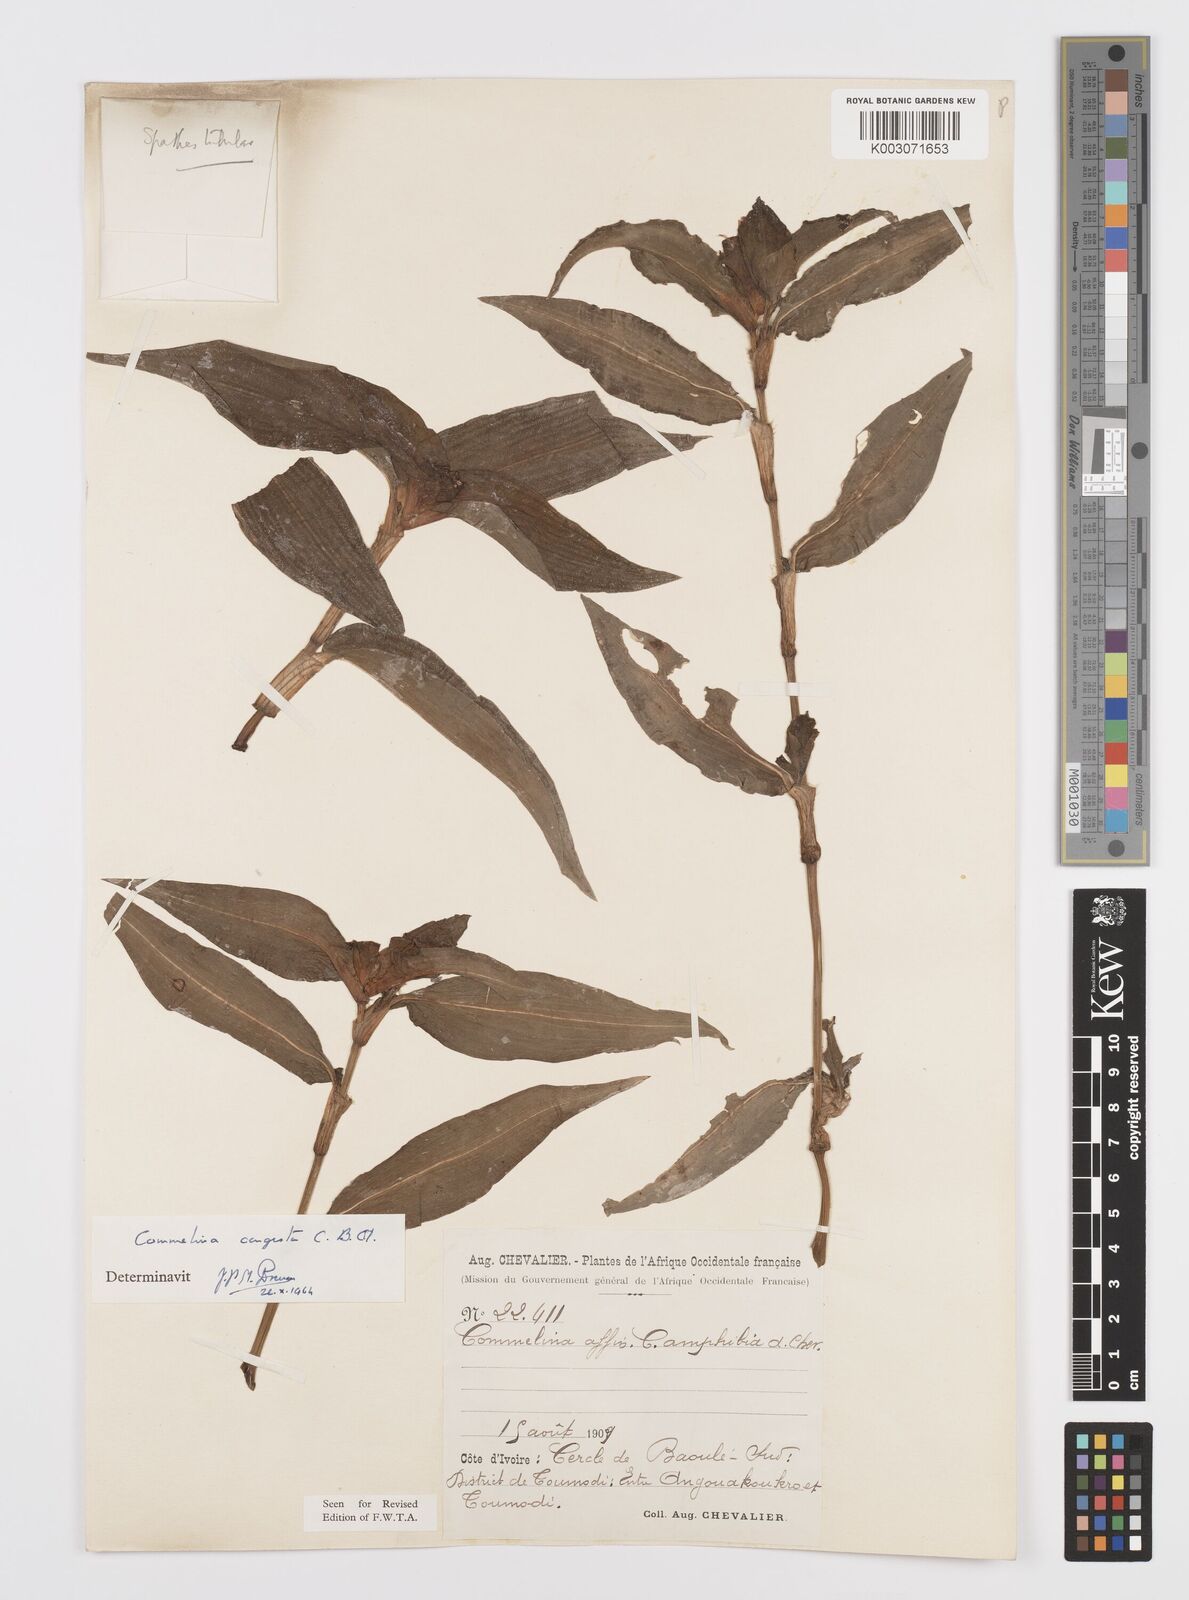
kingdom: Plantae
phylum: Tracheophyta
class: Liliopsida
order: Commelinales
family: Commelinaceae
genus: Commelina
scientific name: Commelina congesta
